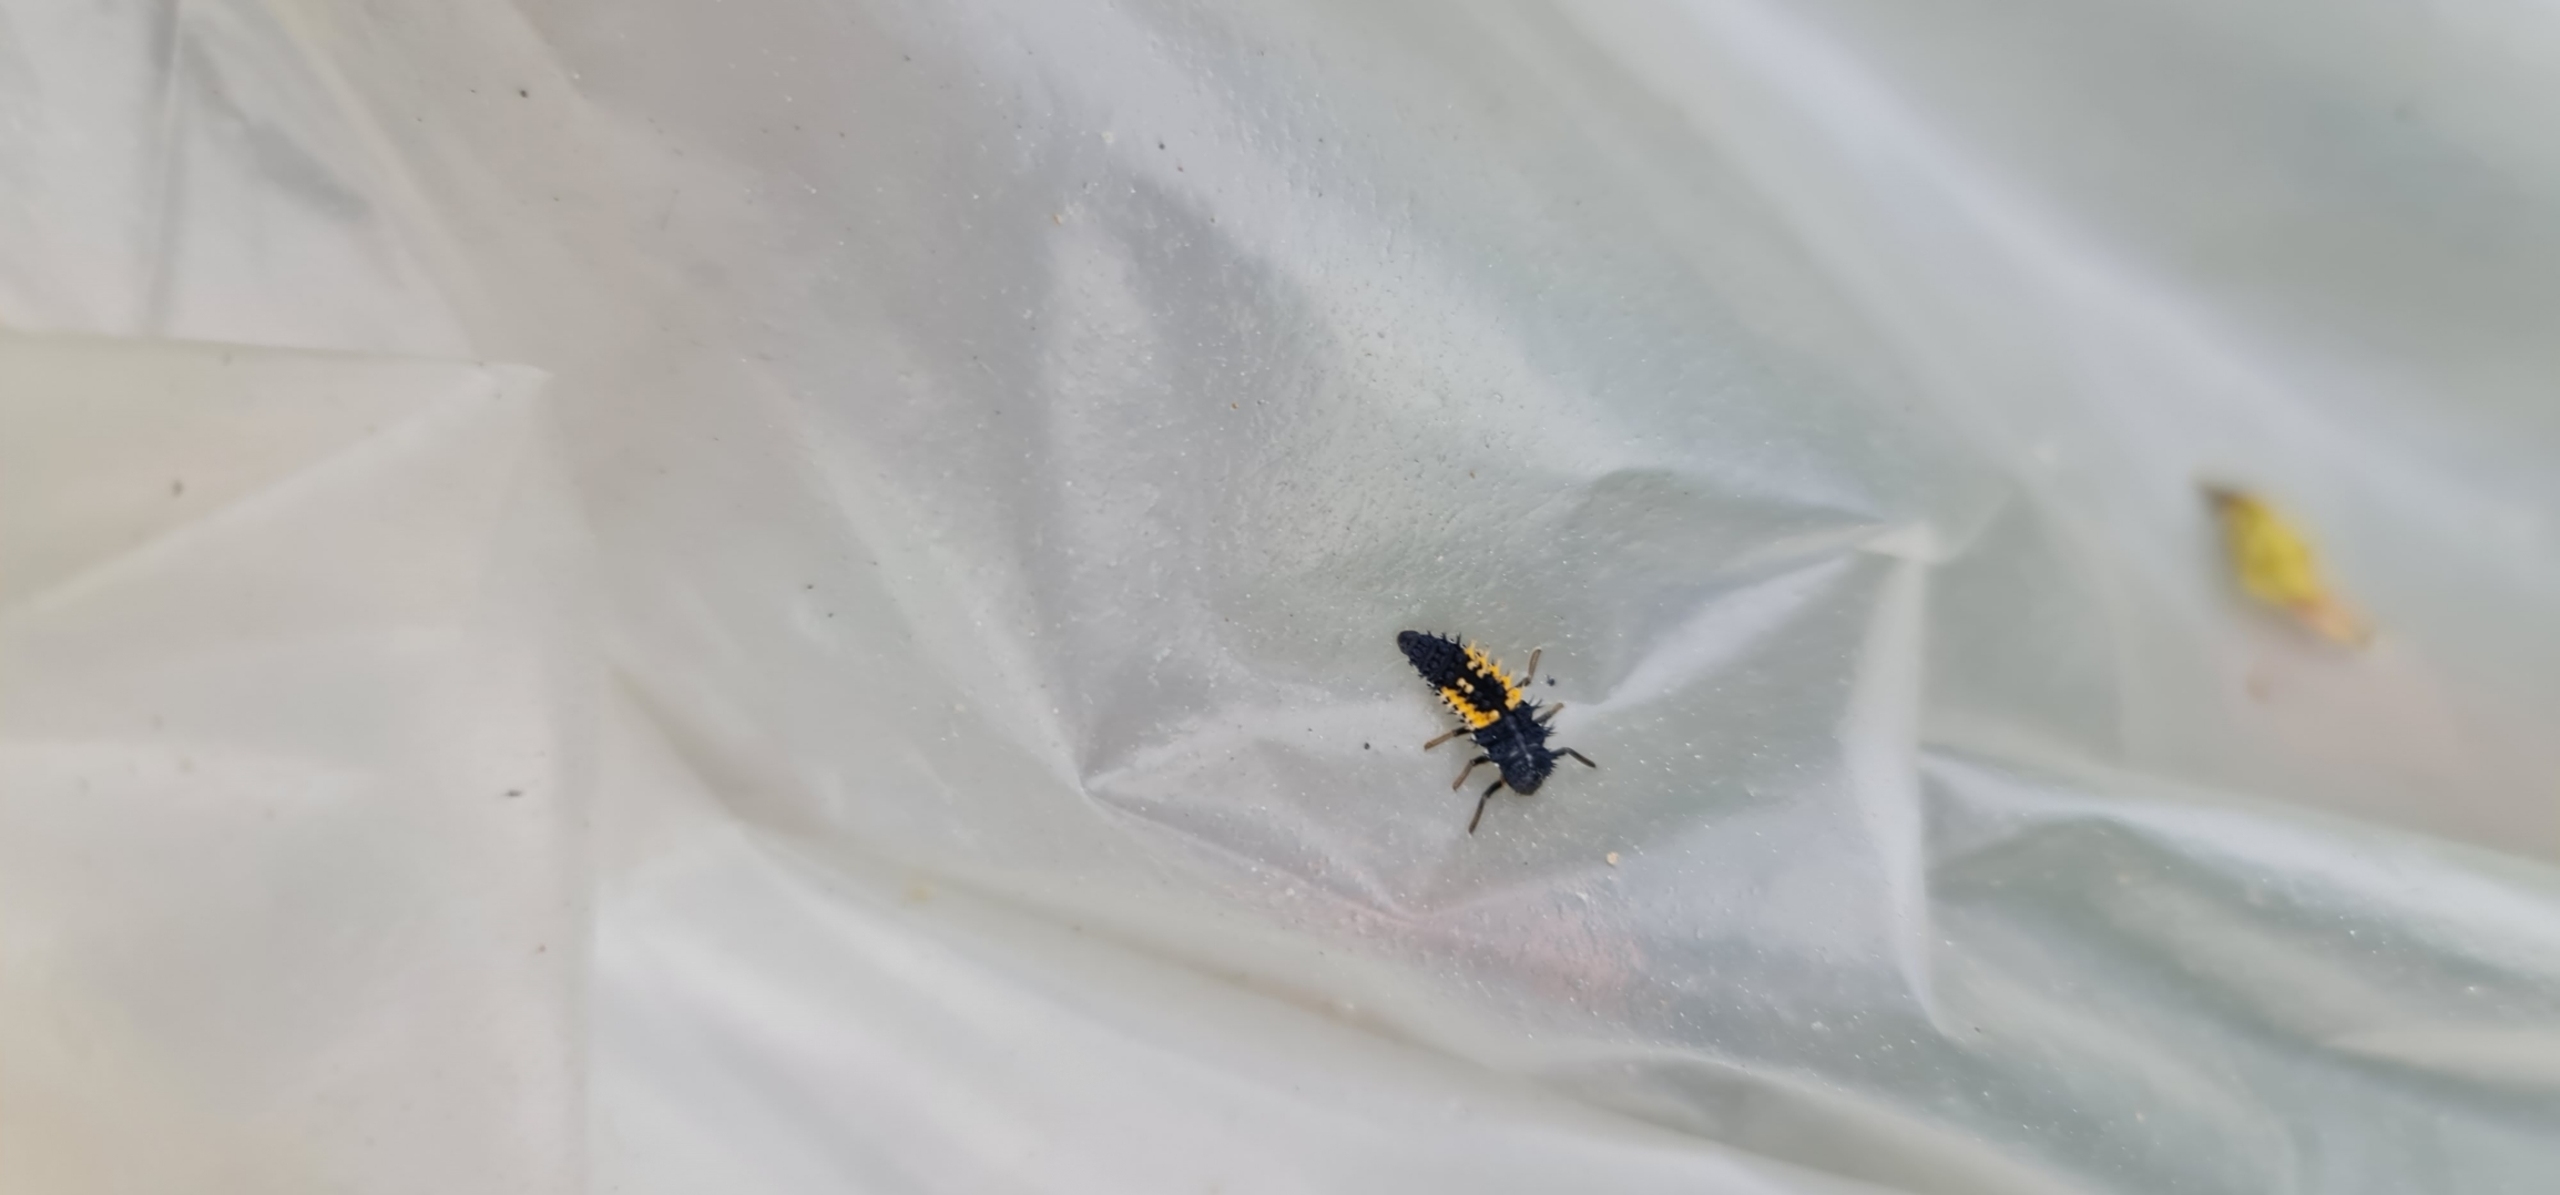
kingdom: Animalia
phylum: Arthropoda
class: Insecta
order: Coleoptera
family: Coccinellidae
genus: Harmonia
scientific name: Harmonia axyridis
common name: Harlekinmariehøne
